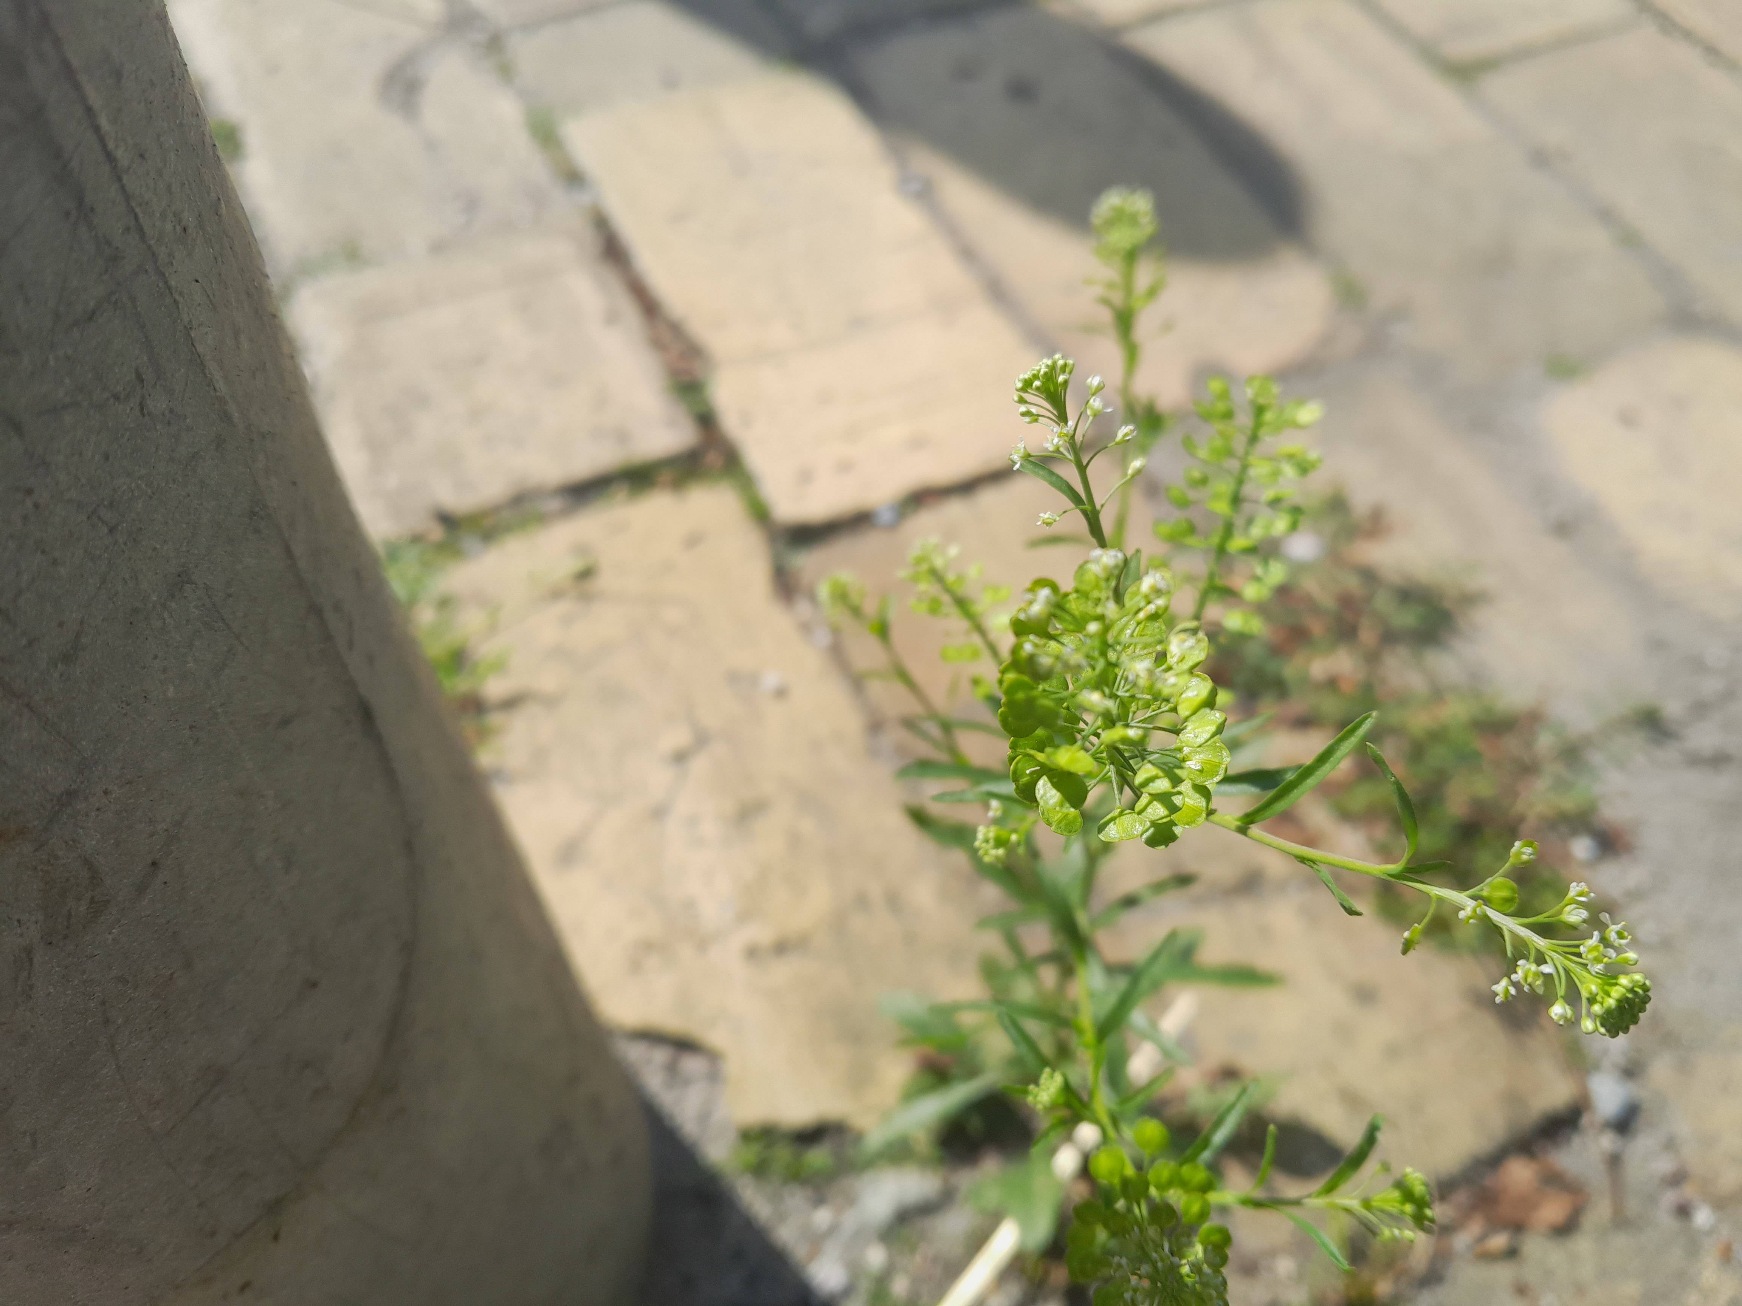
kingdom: Plantae
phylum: Tracheophyta
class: Magnoliopsida
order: Brassicales
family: Brassicaceae
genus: Lepidium
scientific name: Lepidium virginicum
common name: Virginsk karse
